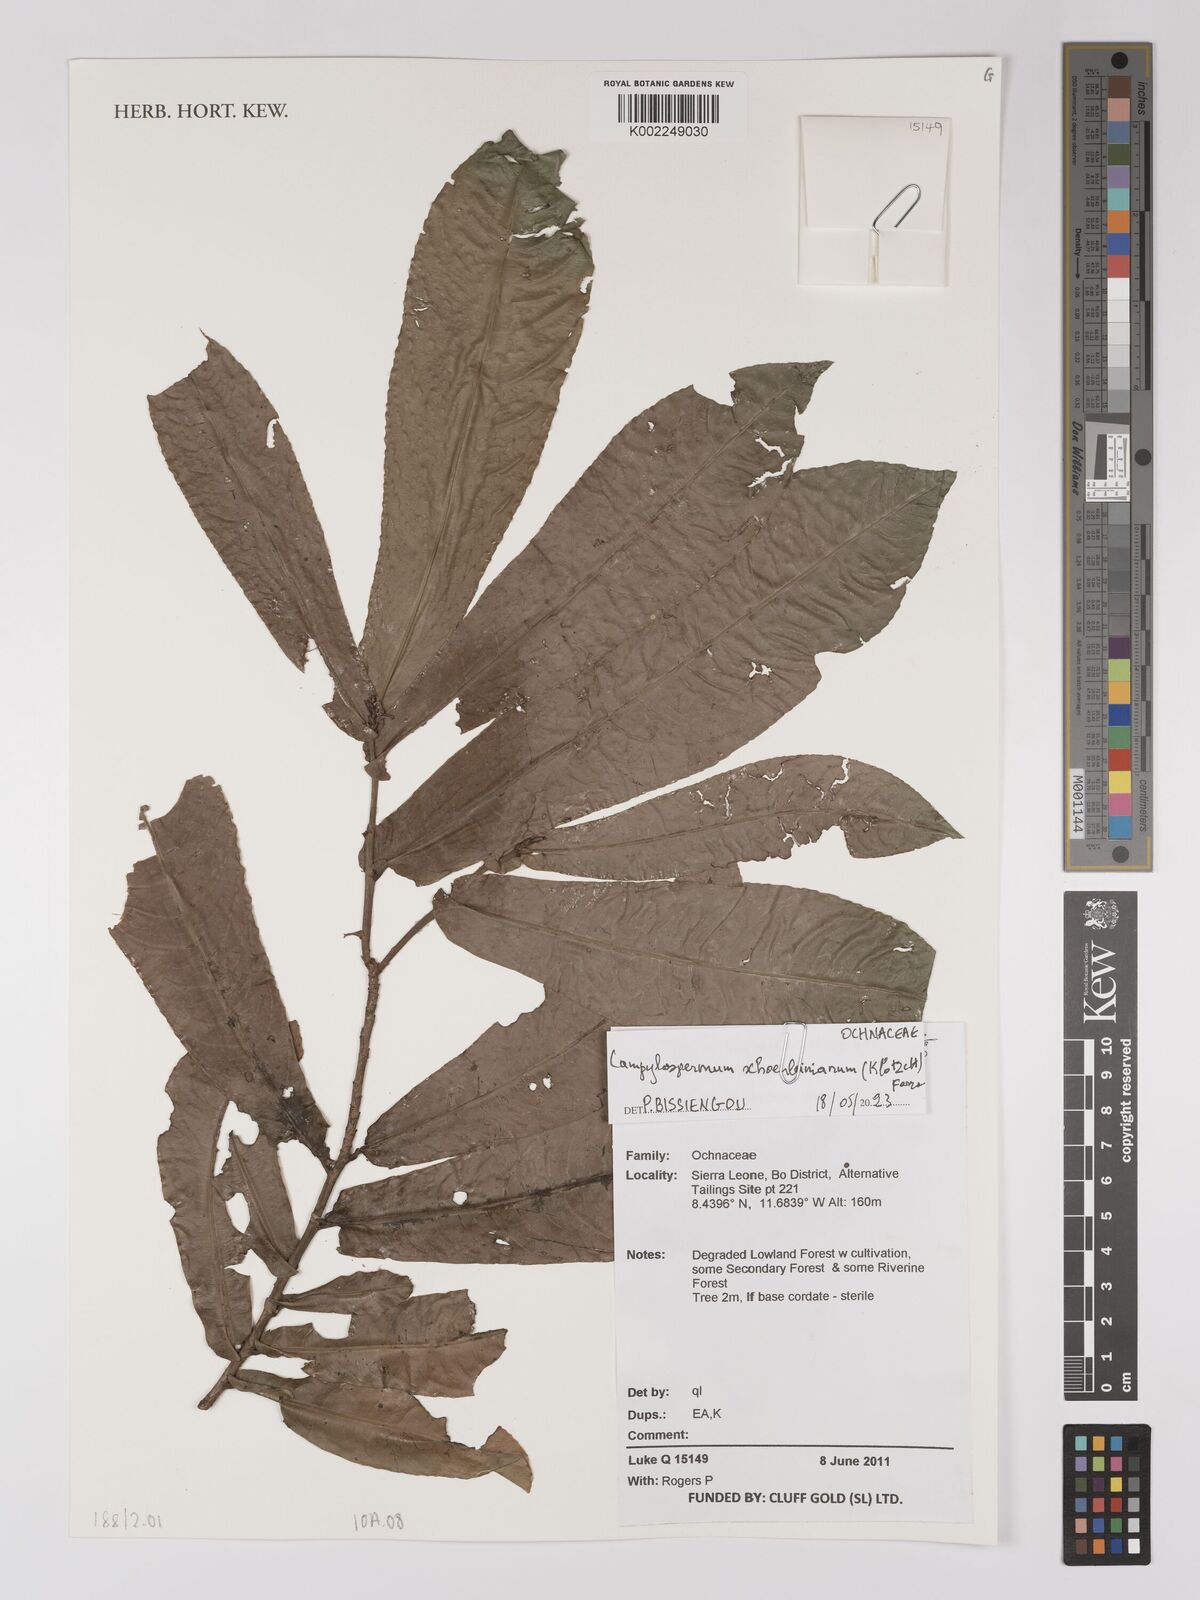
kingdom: Plantae
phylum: Tracheophyta
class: Magnoliopsida
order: Malpighiales
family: Ochnaceae
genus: Campylospermum
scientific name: Campylospermum schoenleinianum
